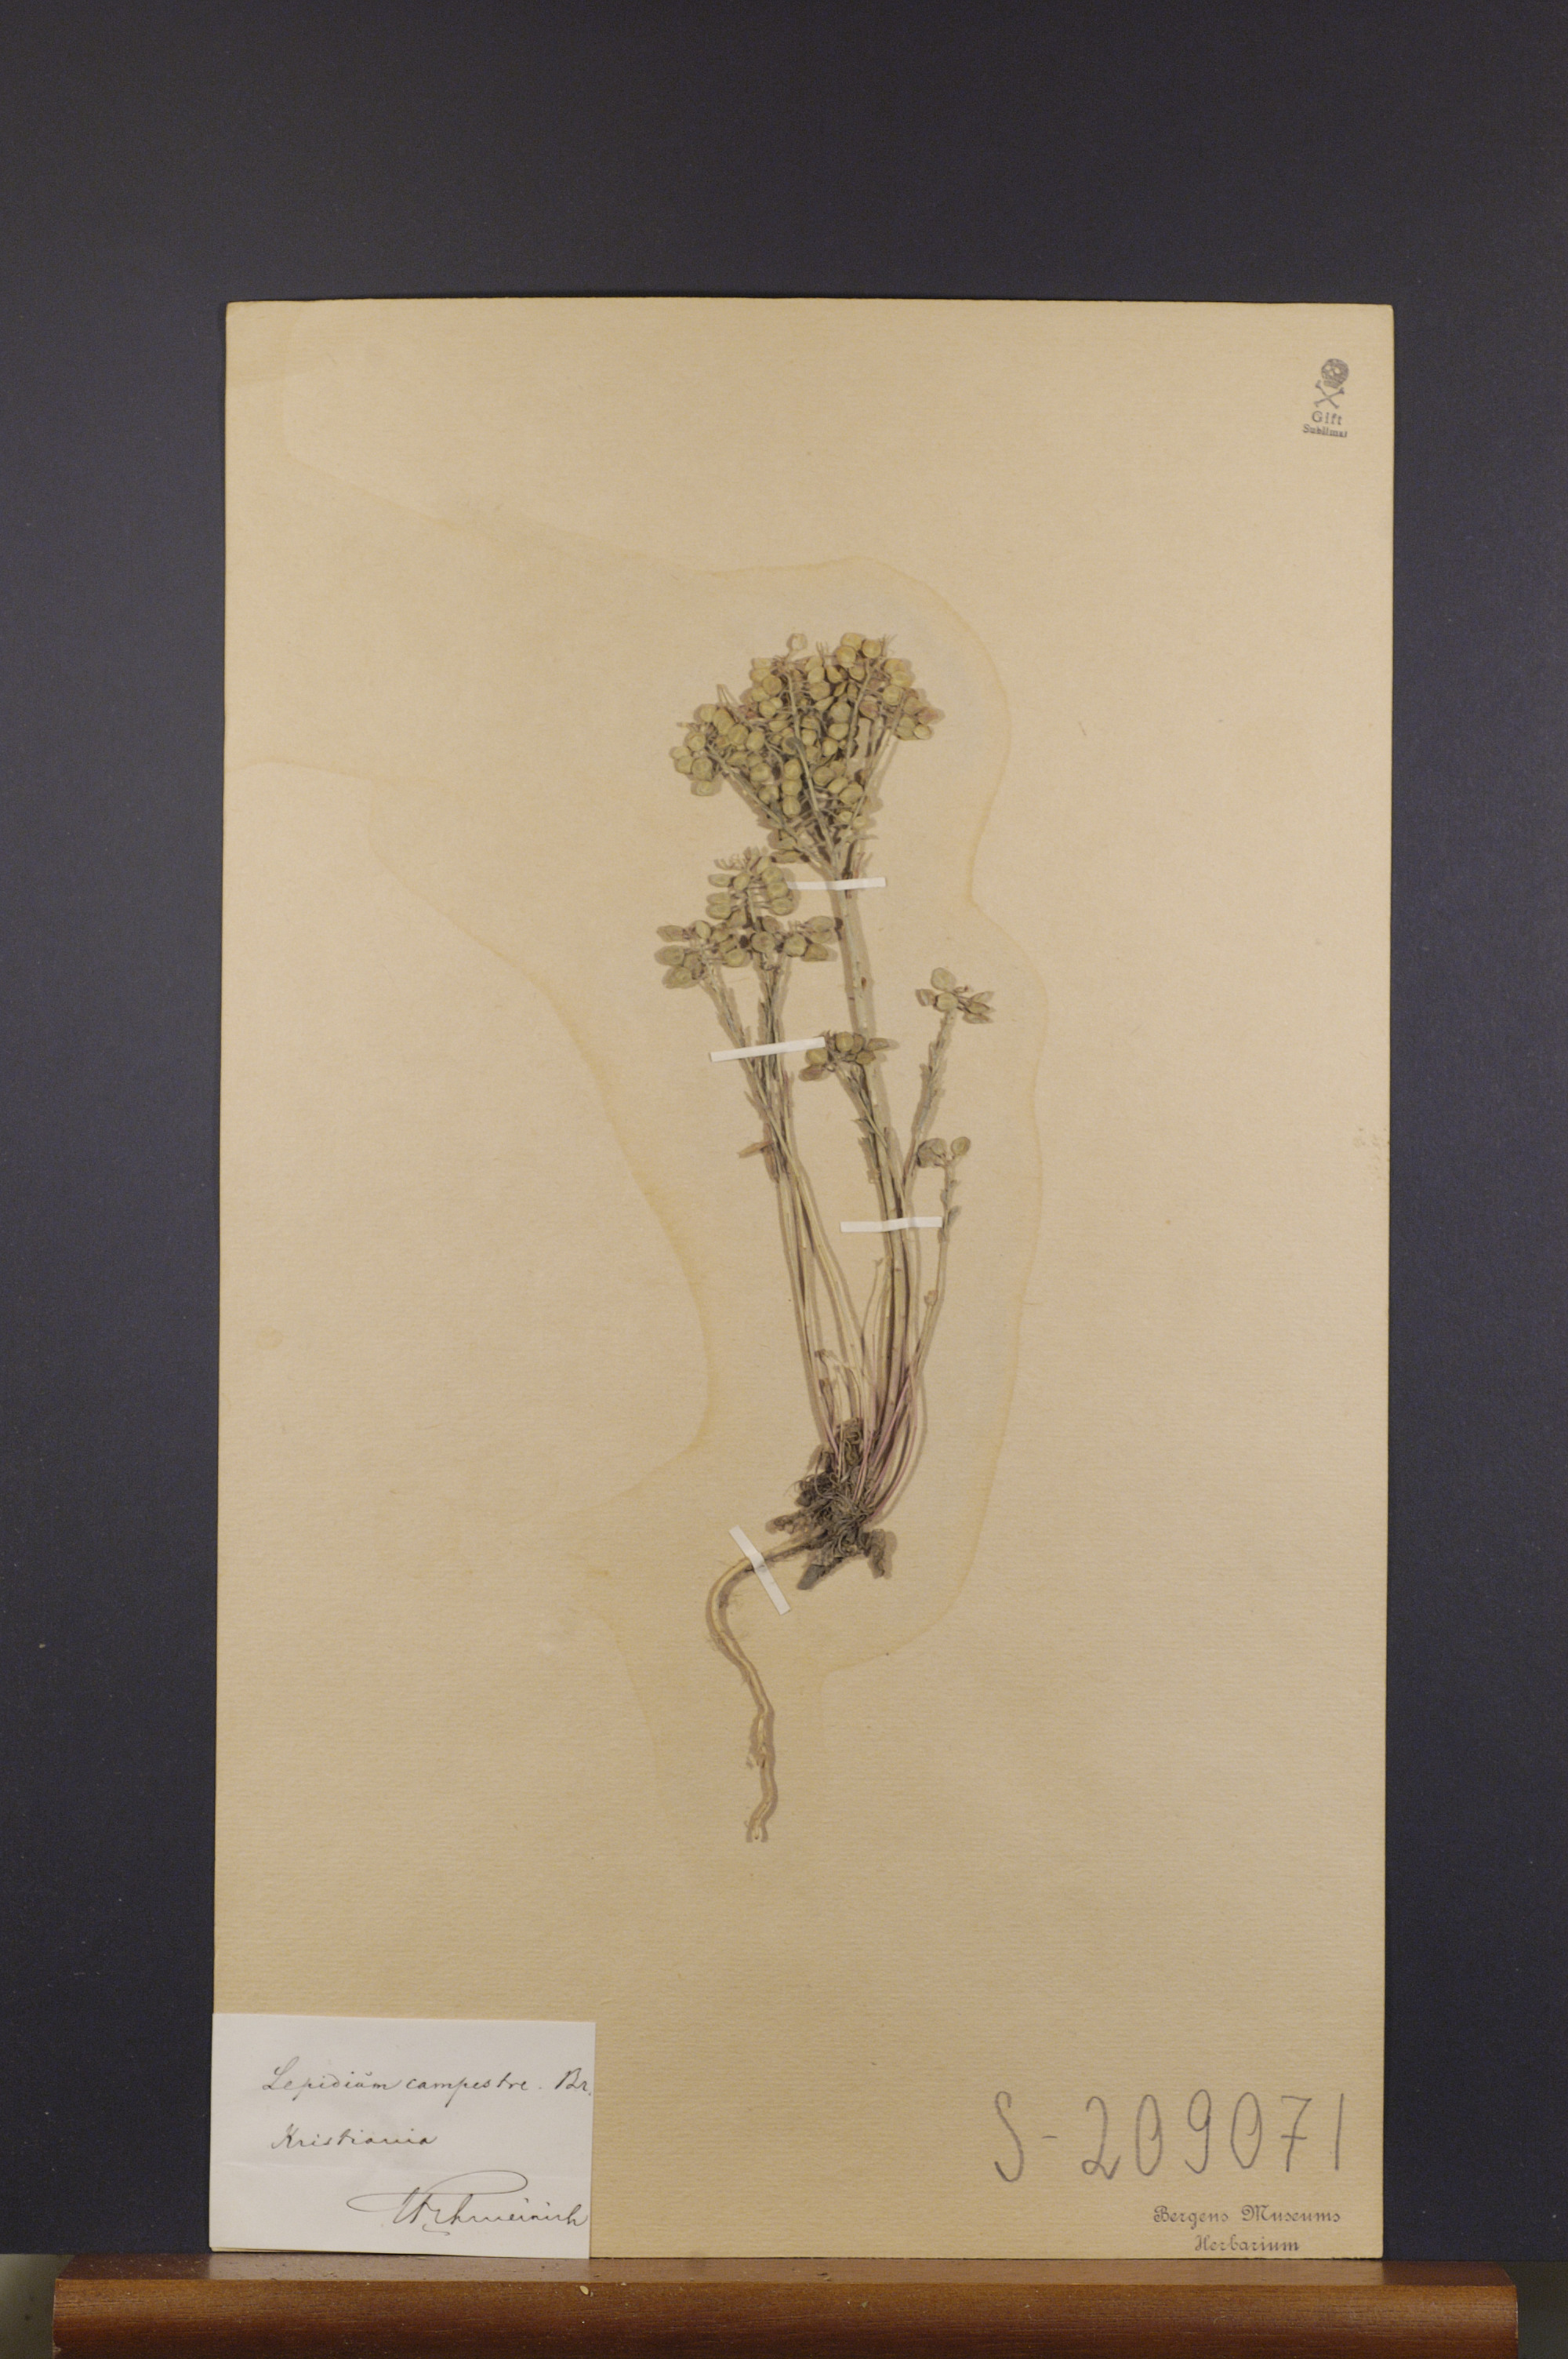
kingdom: Plantae
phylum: Tracheophyta
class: Magnoliopsida
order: Brassicales
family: Brassicaceae
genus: Lepidium
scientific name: Lepidium campestre
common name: Field pepperwort
